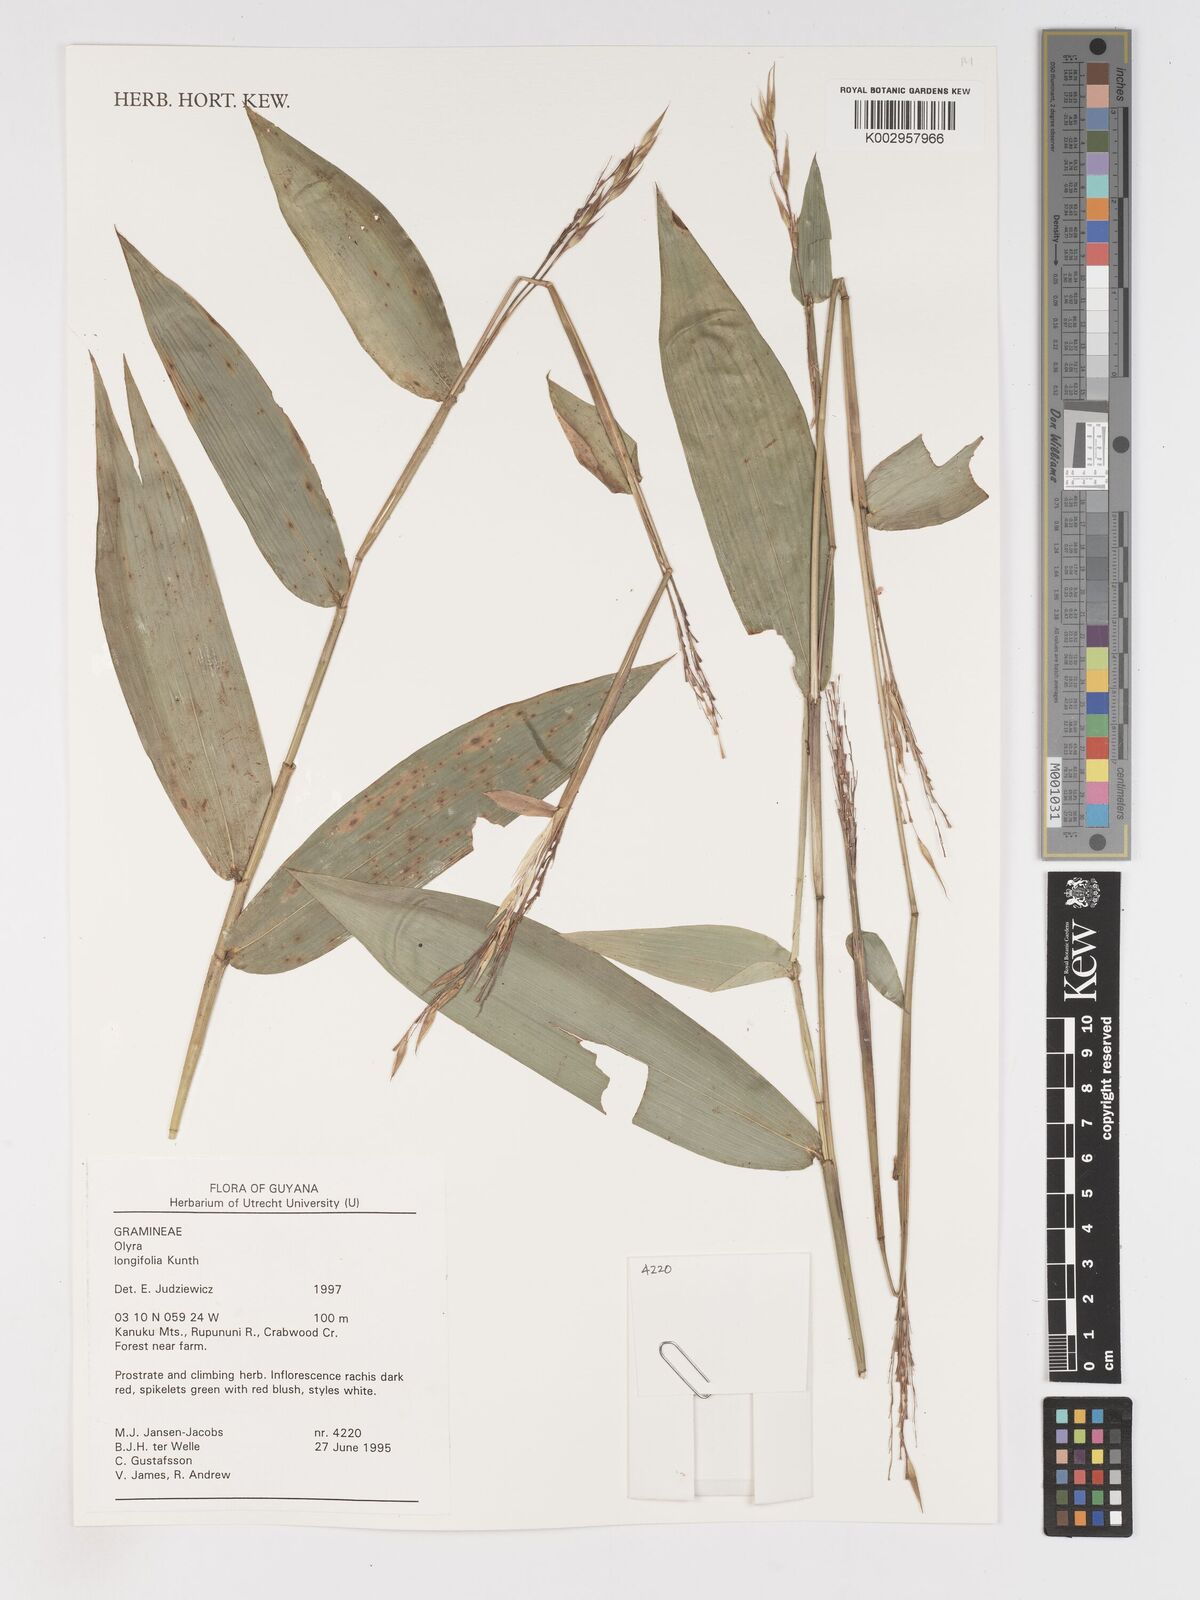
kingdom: Plantae
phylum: Tracheophyta
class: Liliopsida
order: Poales
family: Poaceae
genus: Olyra
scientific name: Olyra longifolia
